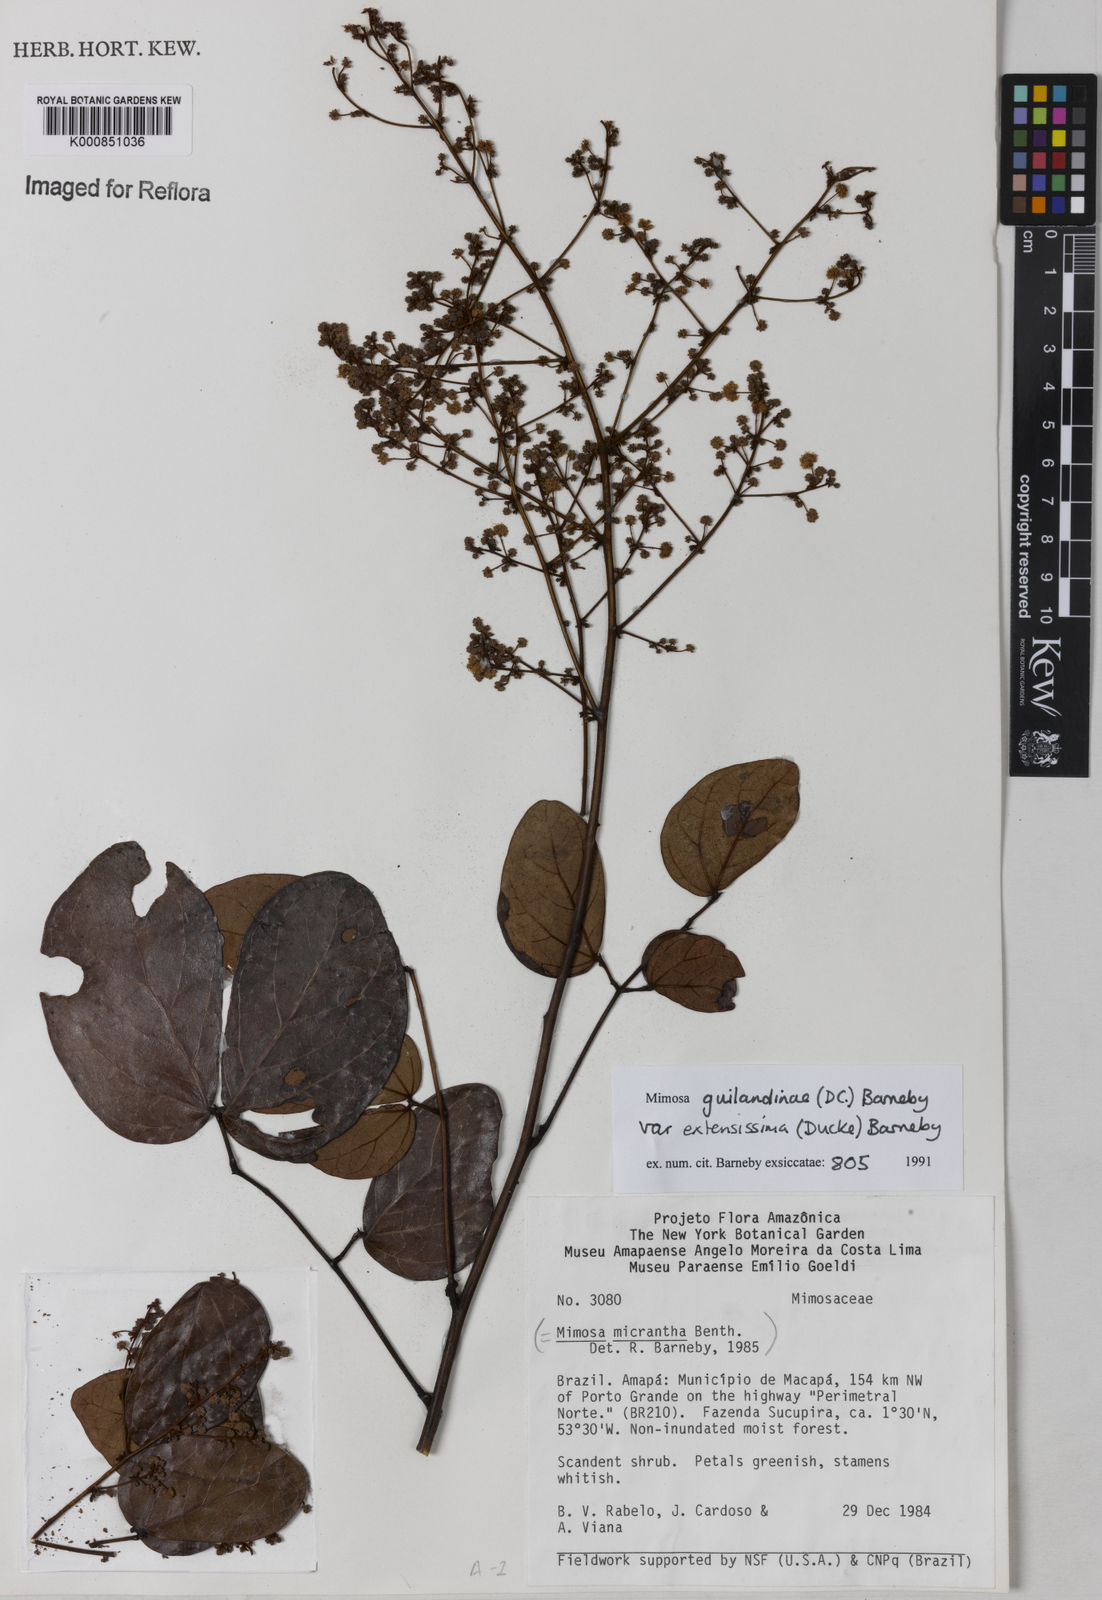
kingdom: Plantae
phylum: Tracheophyta
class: Magnoliopsida
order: Fabales
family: Fabaceae
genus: Mimosa
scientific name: Mimosa guilandinae
